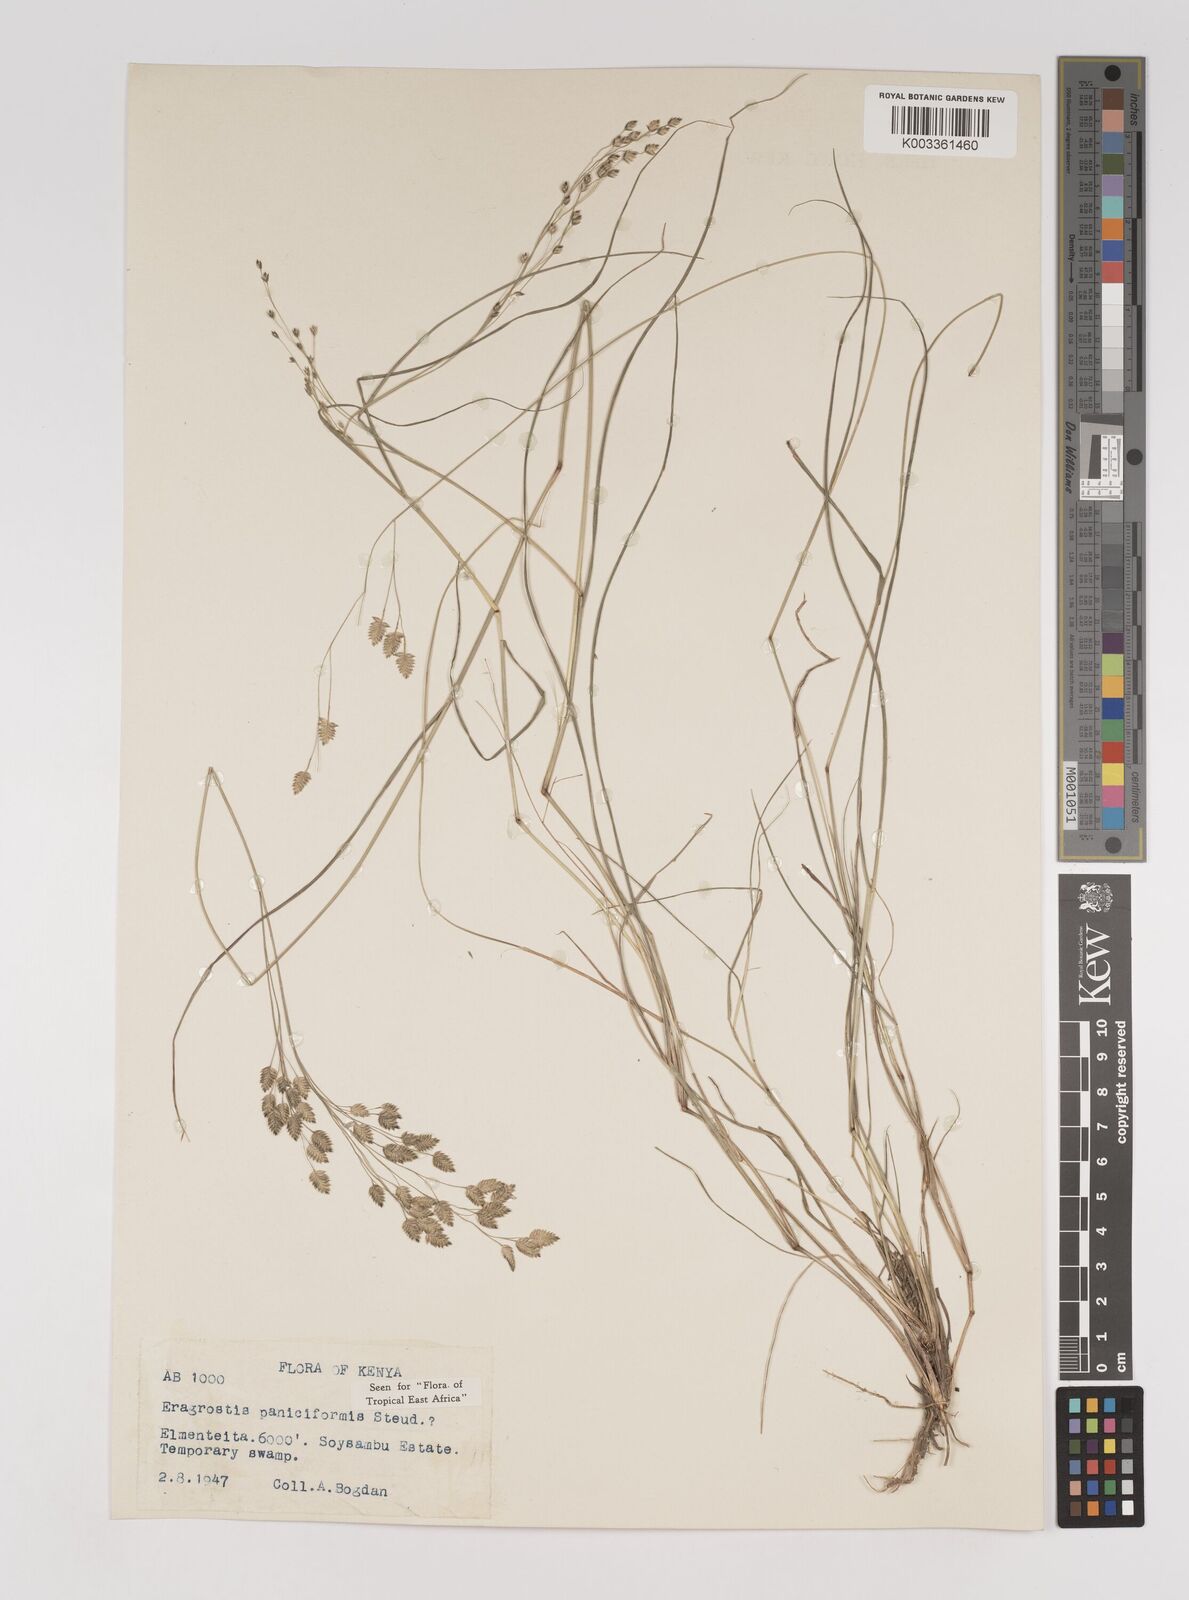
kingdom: Plantae
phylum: Tracheophyta
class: Liliopsida
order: Poales
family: Poaceae
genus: Eragrostis
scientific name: Eragrostis paniciformis
